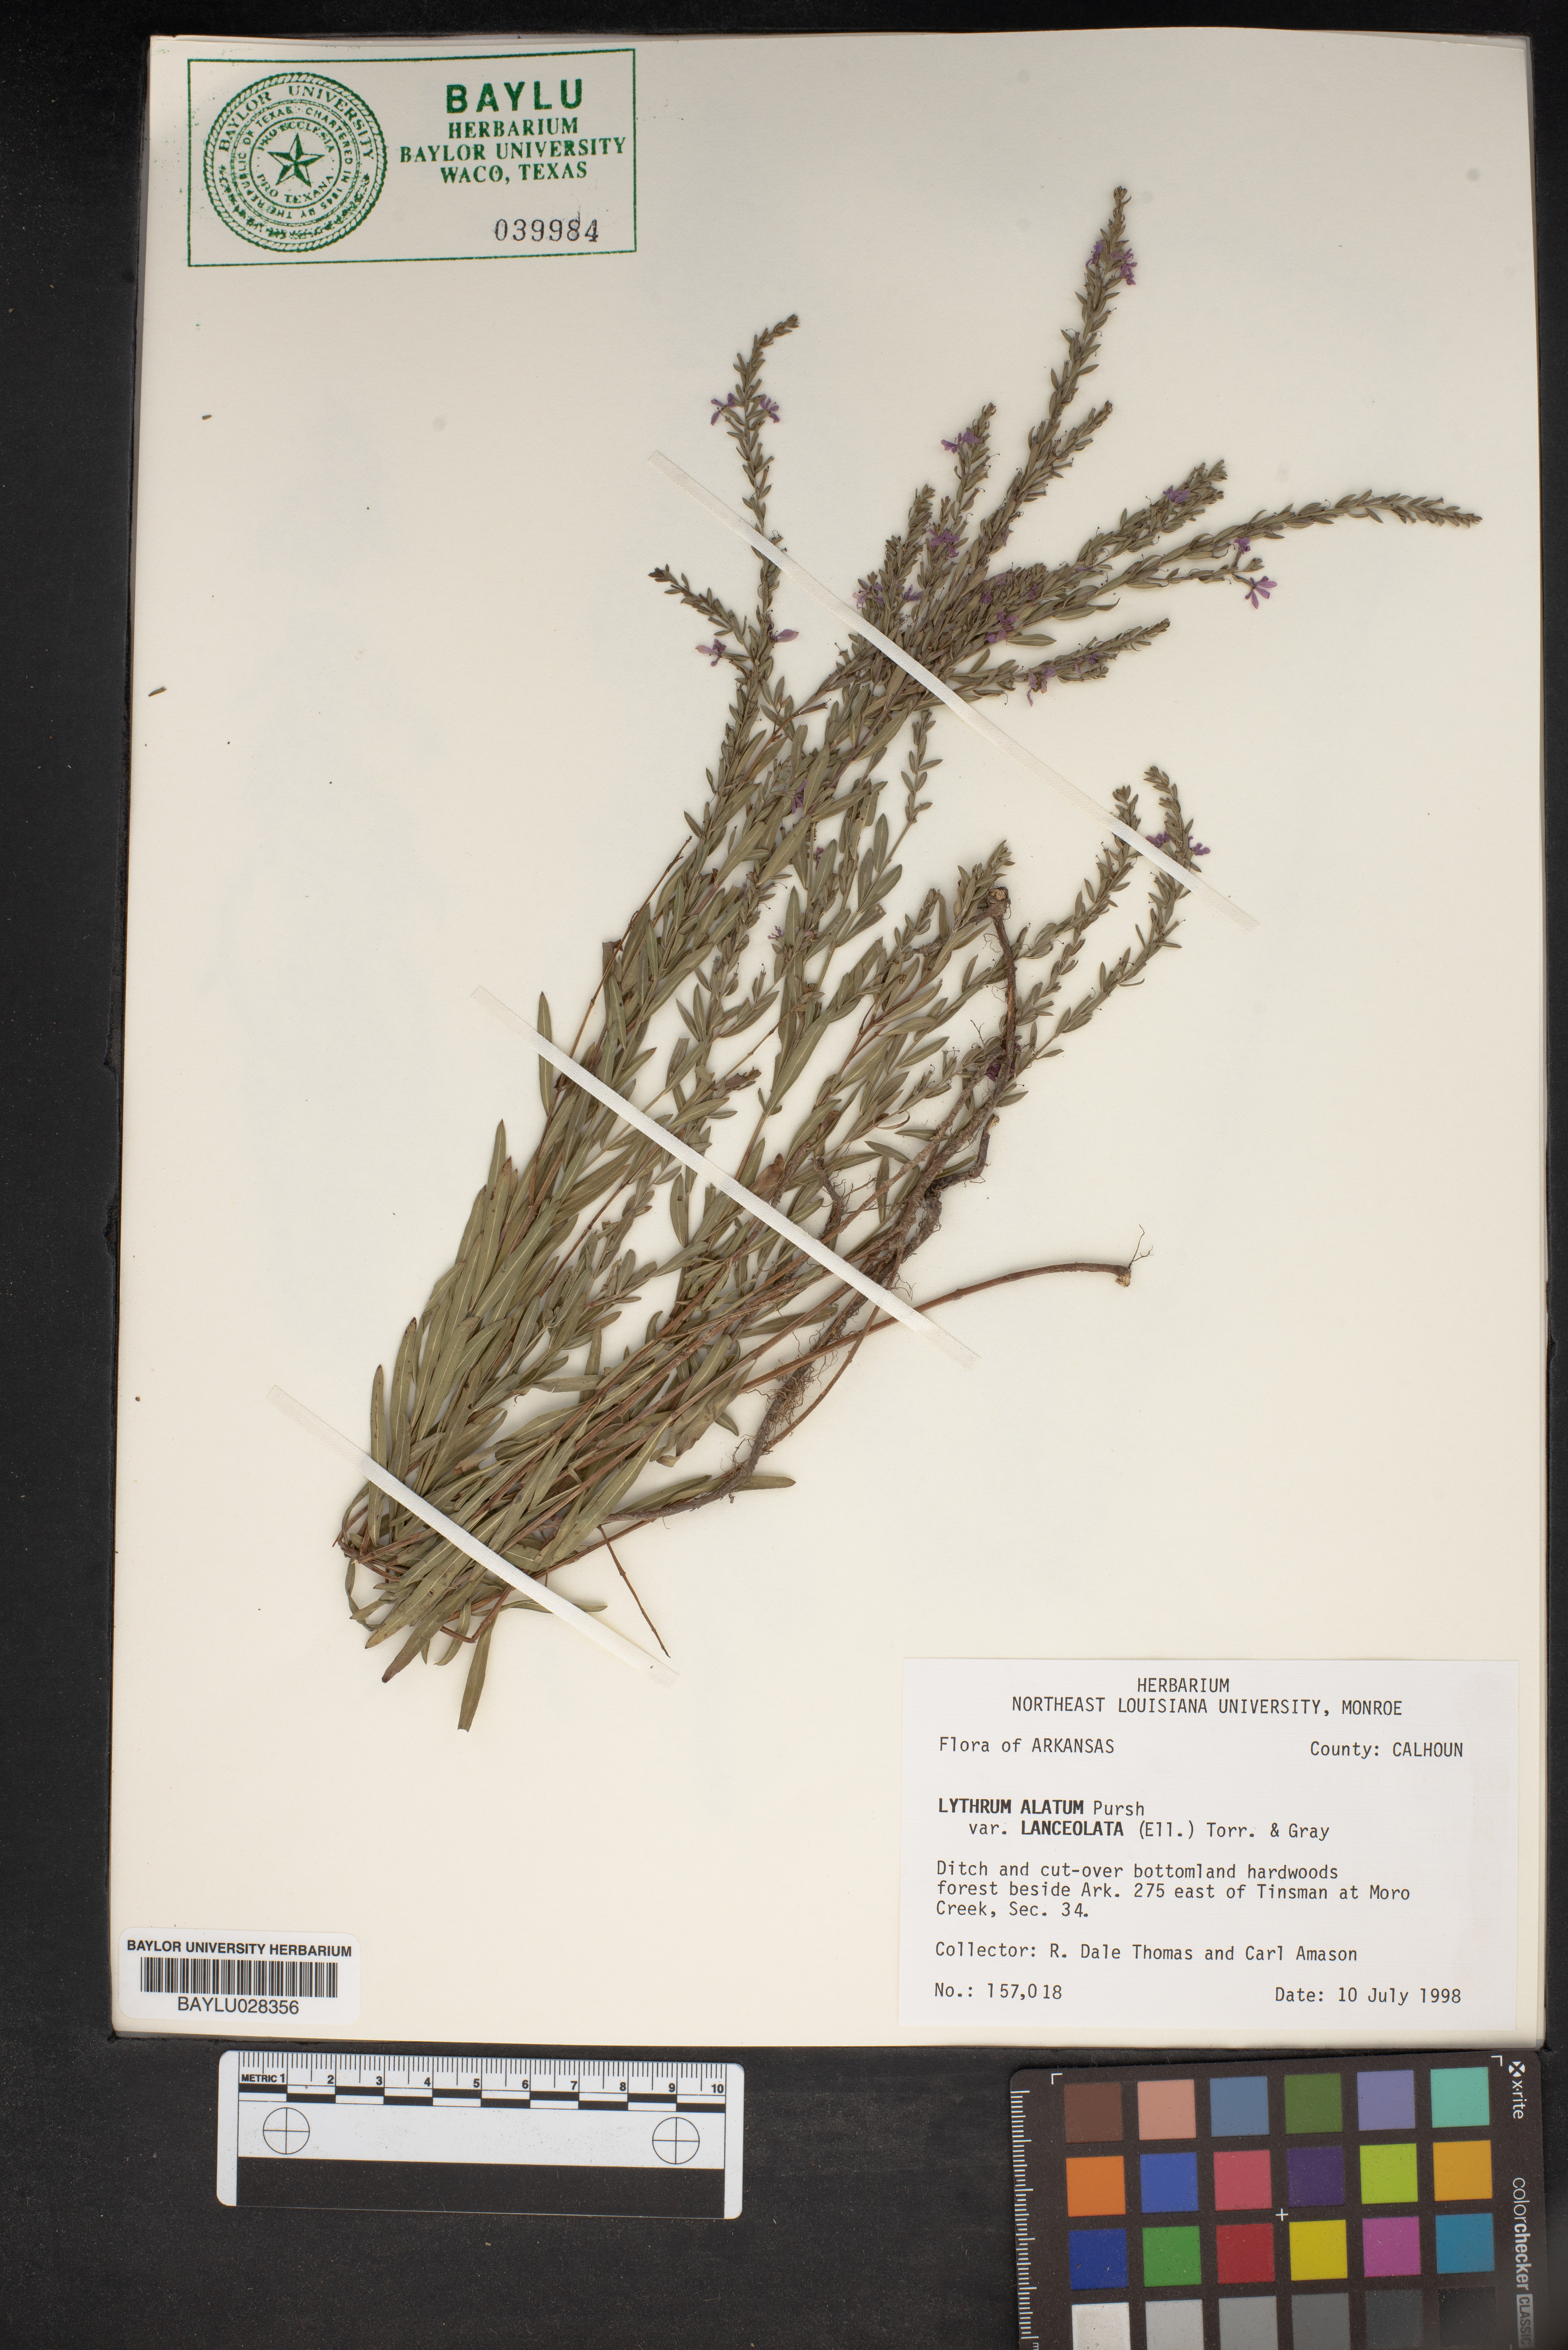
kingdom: Plantae
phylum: Tracheophyta
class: Magnoliopsida
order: Myrtales
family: Lythraceae
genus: Lythrum
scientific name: Lythrum alatum
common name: Winged loosestrife
